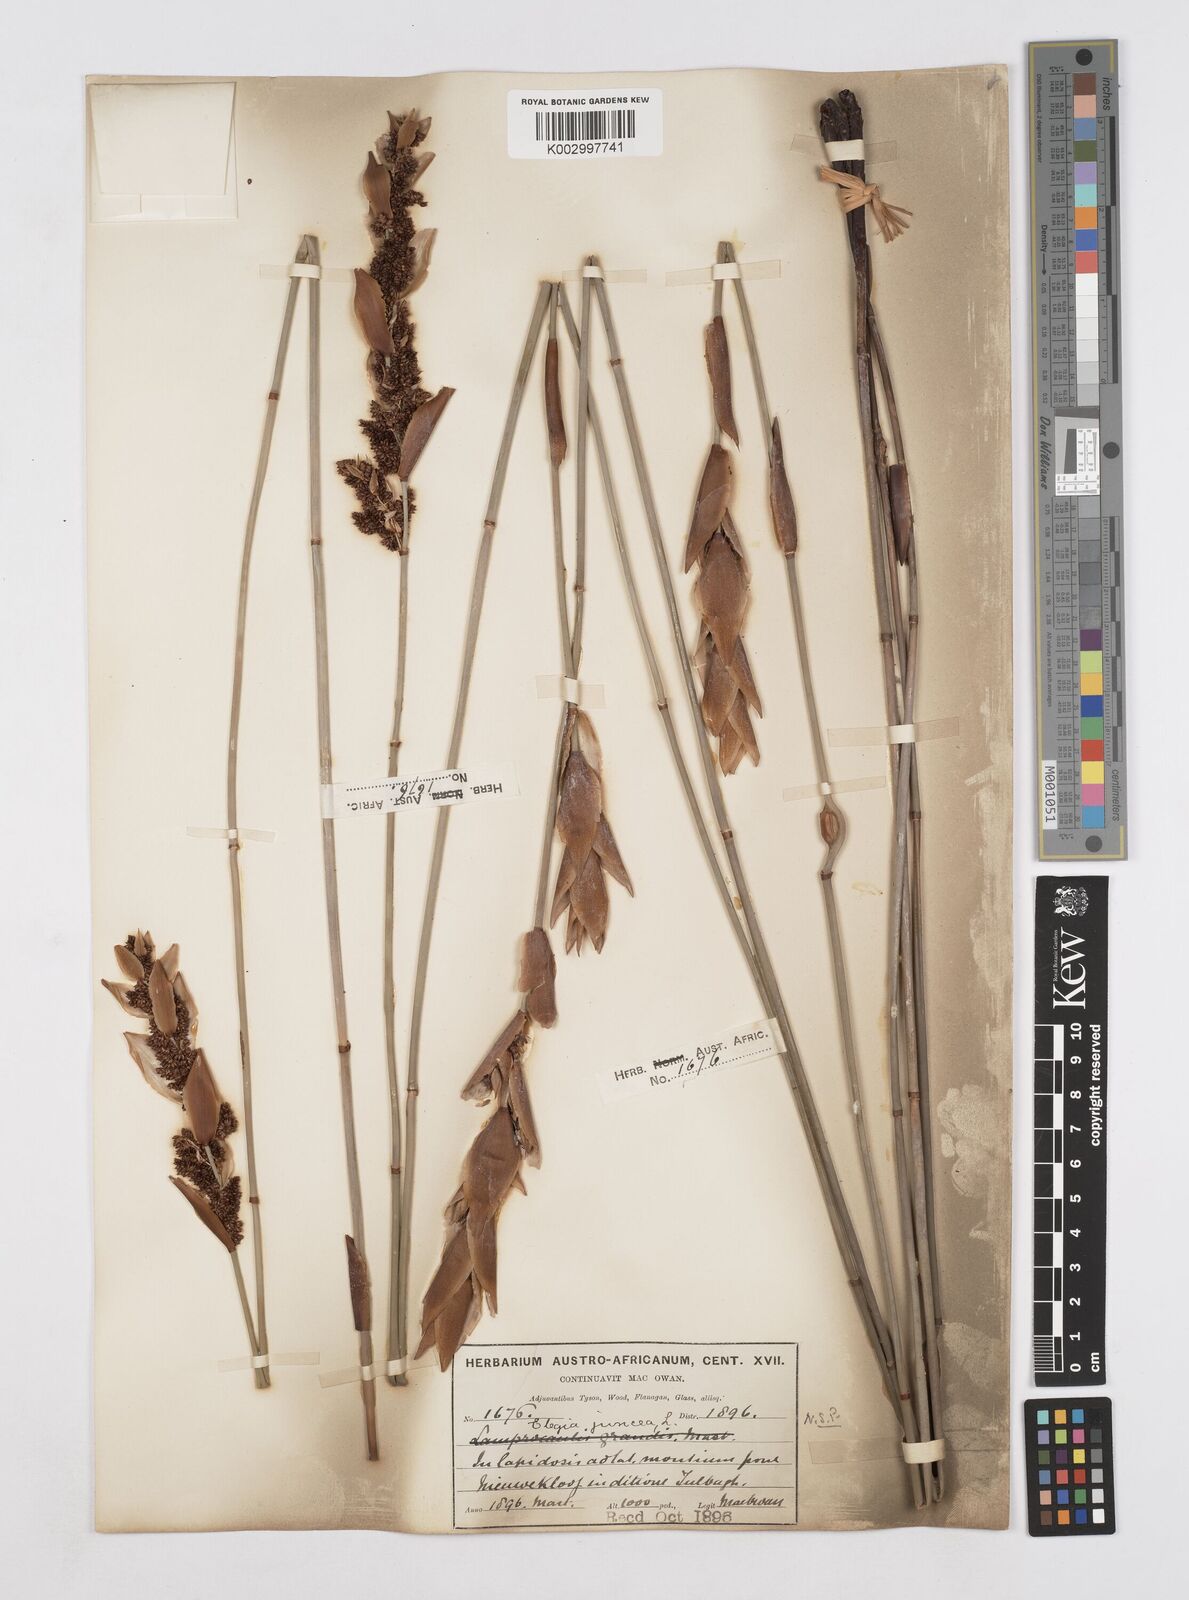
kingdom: Plantae
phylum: Tracheophyta
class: Liliopsida
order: Poales
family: Restionaceae
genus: Elegia
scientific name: Elegia juncea
